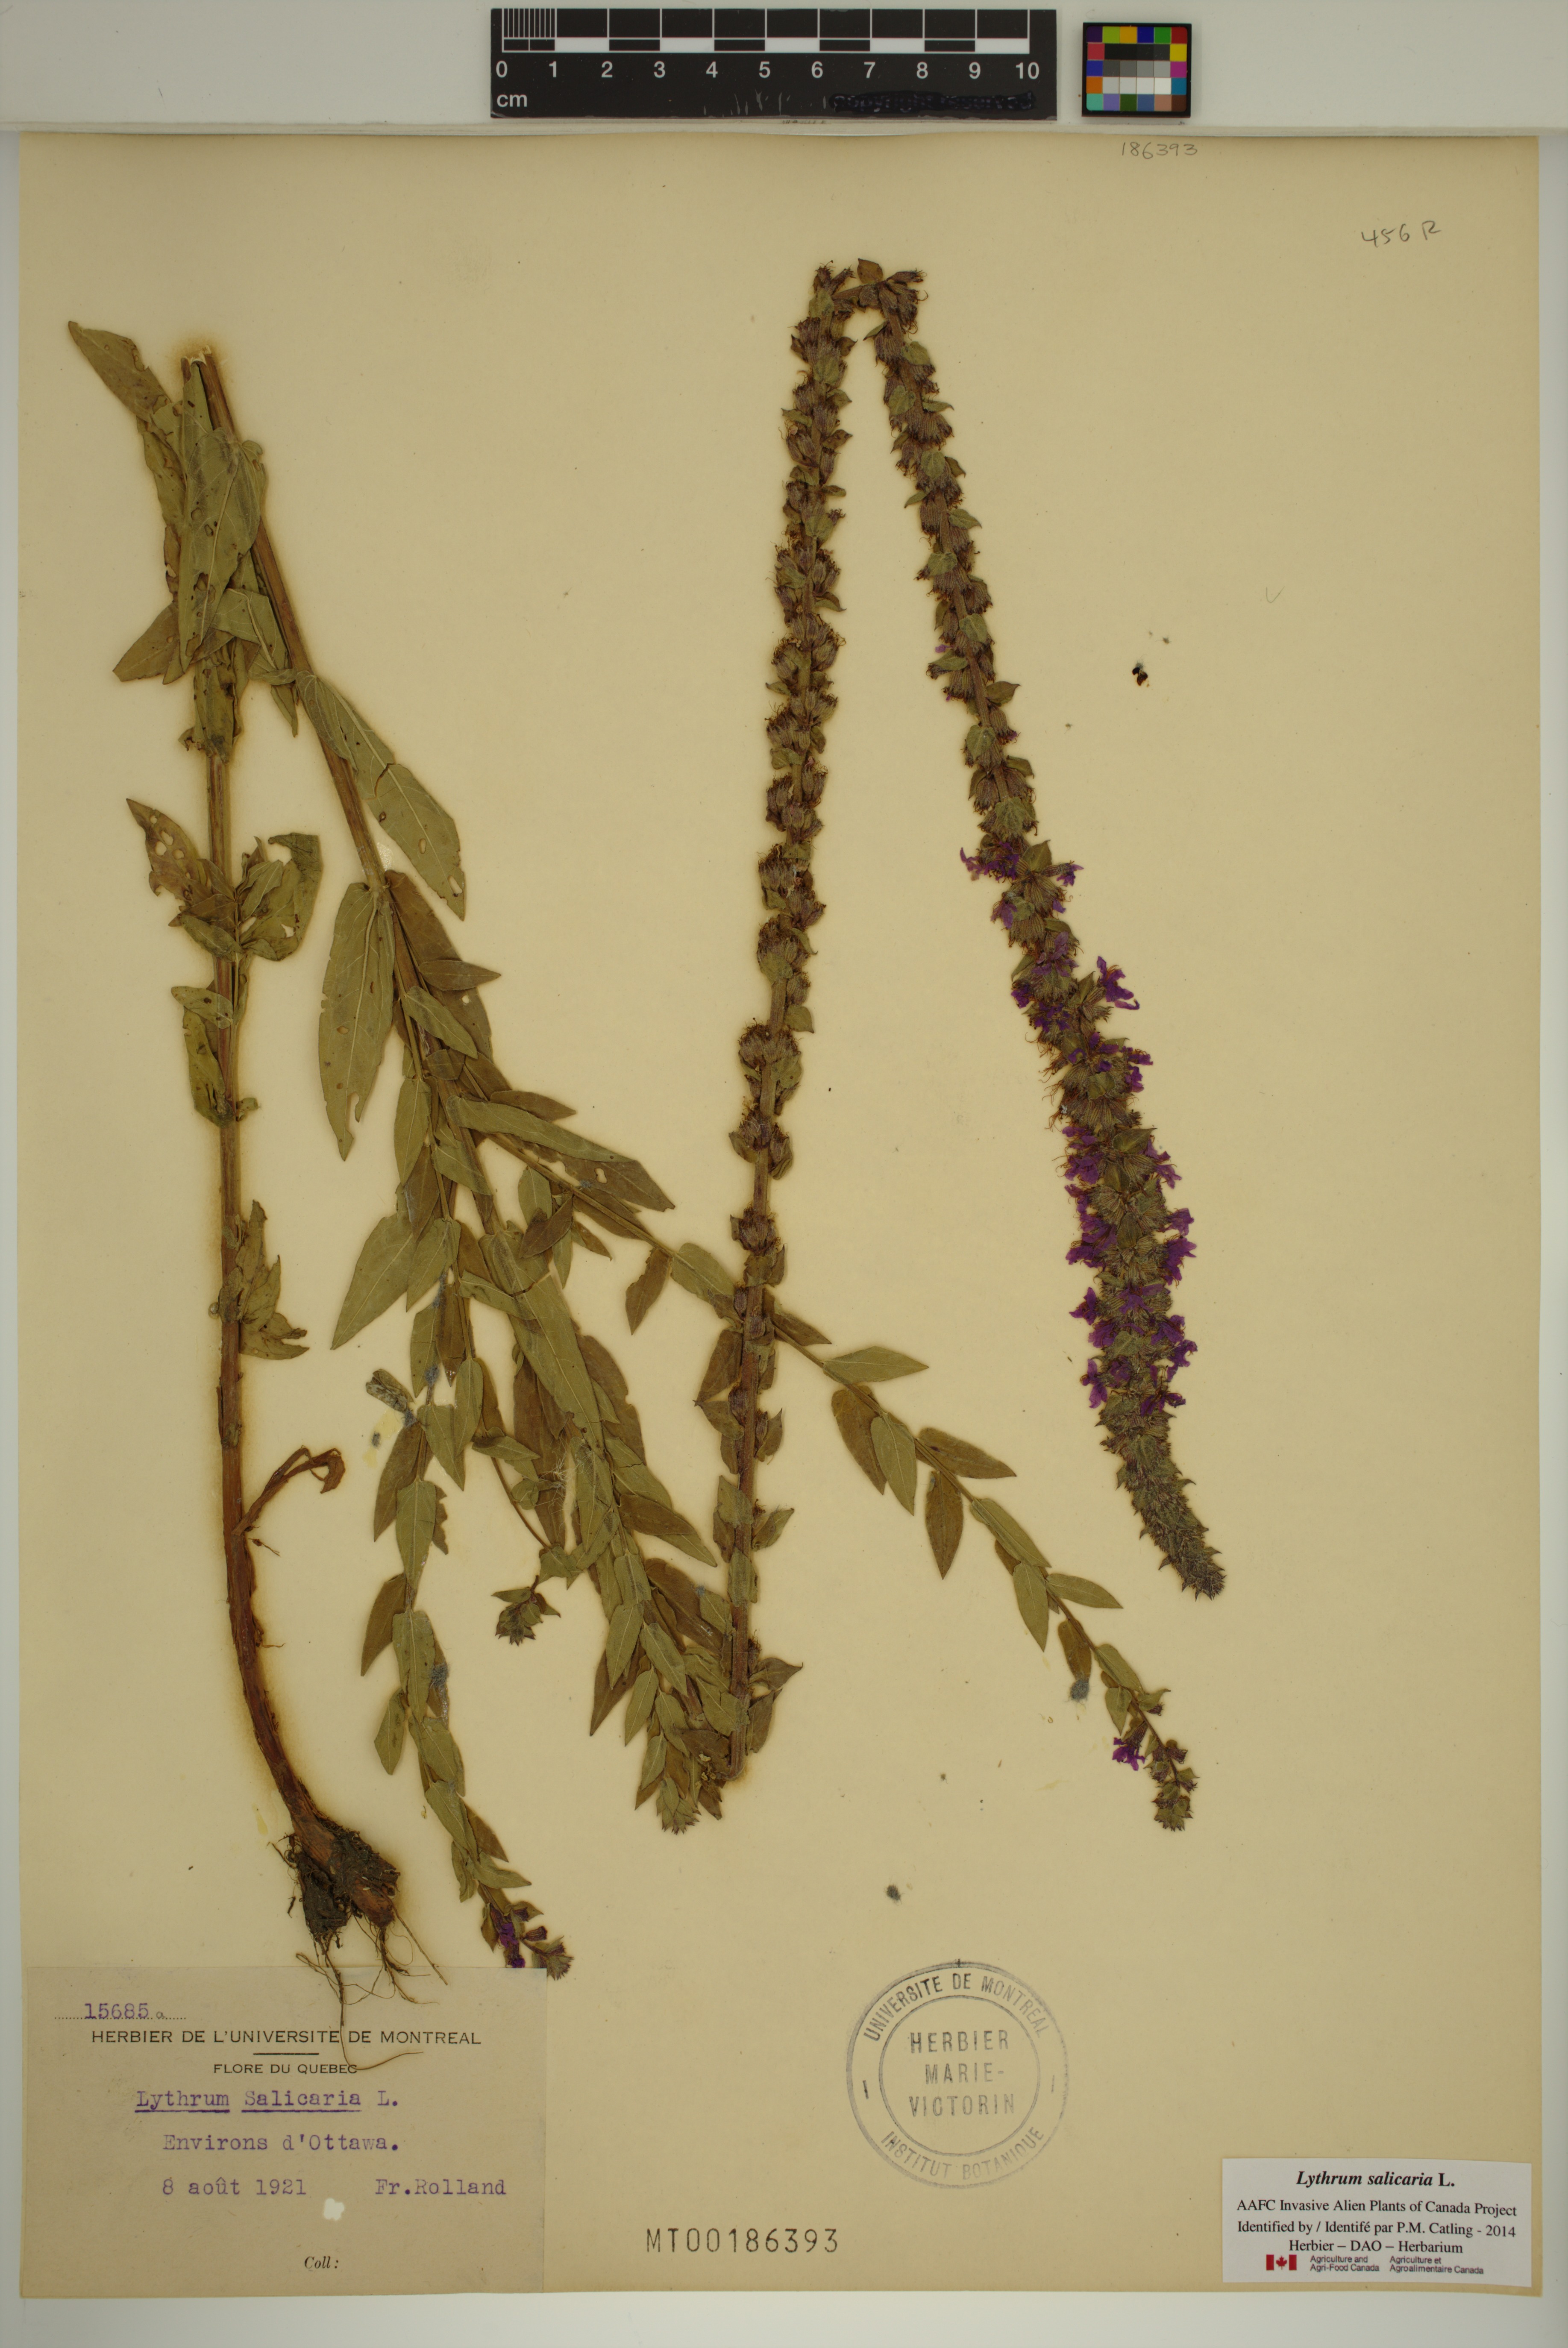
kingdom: Plantae
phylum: Tracheophyta
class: Magnoliopsida
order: Myrtales
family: Lythraceae
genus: Lythrum
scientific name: Lythrum salicaria
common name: Purple loosestrife
